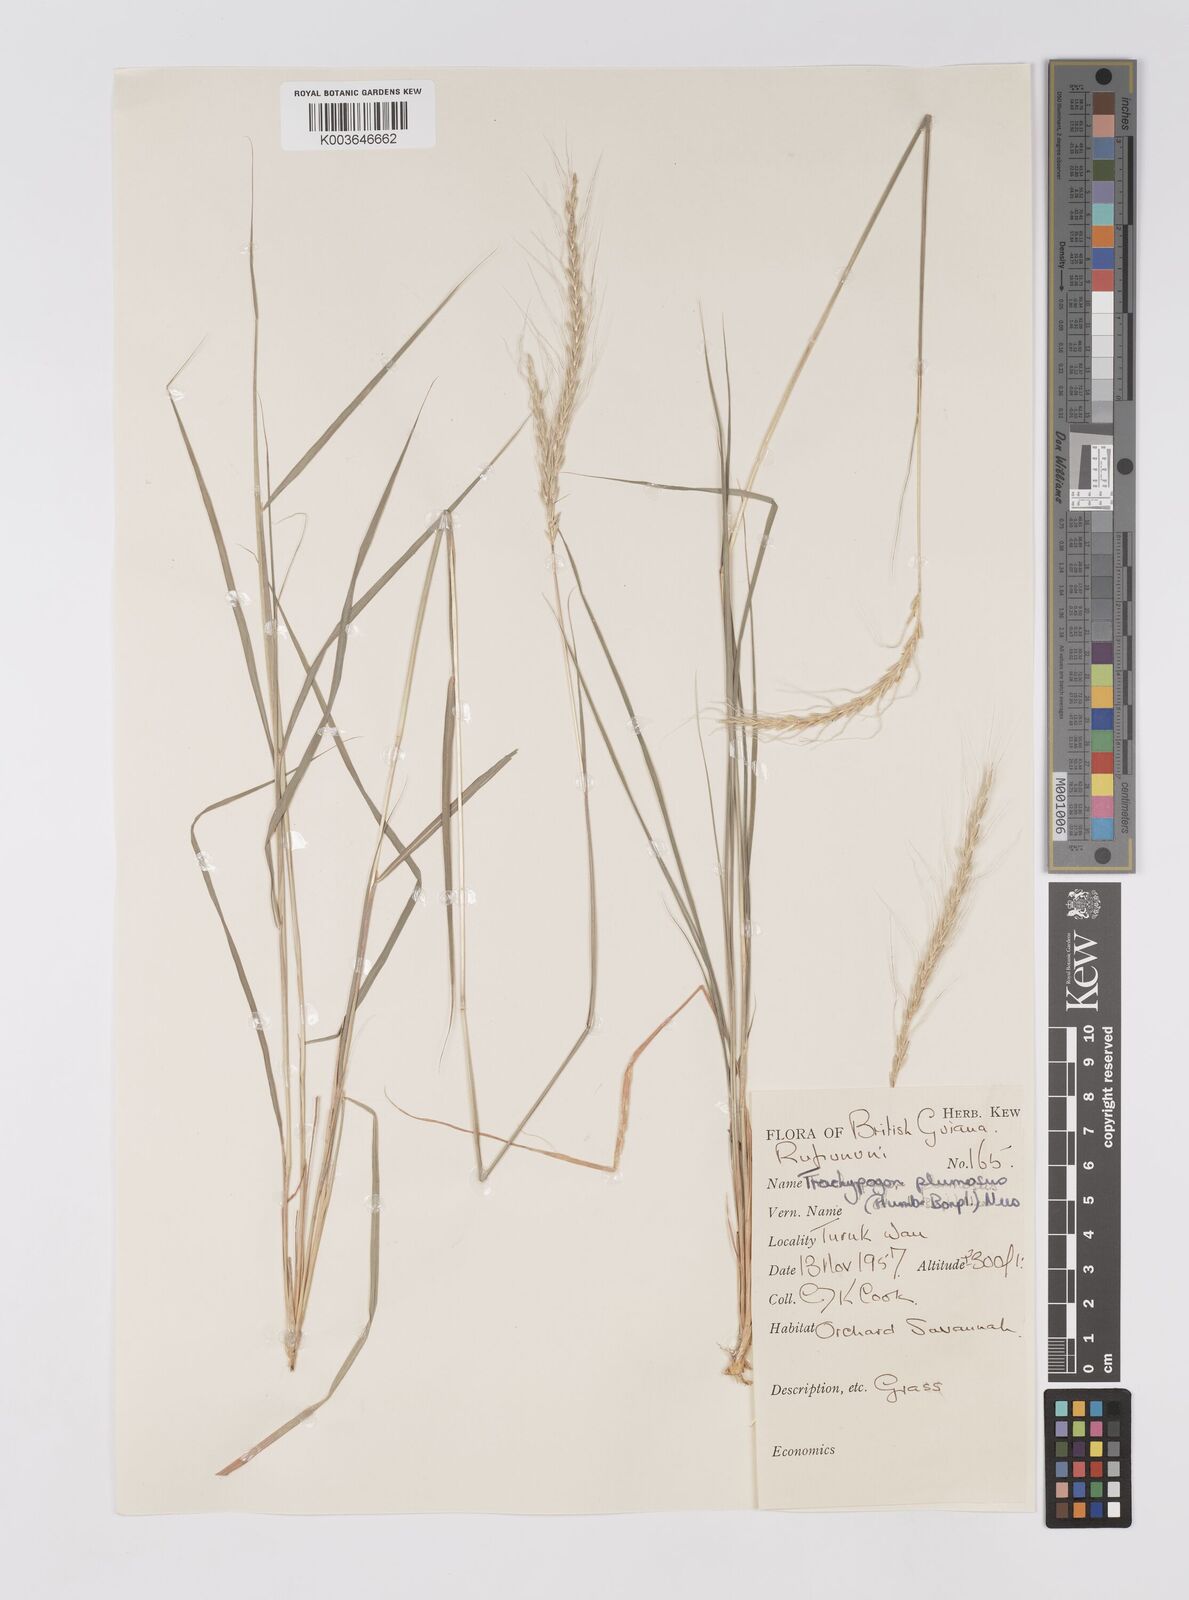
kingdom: Plantae
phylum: Tracheophyta
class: Liliopsida
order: Poales
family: Poaceae
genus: Trachypogon
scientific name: Trachypogon spicatus
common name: Crinkle-awn
